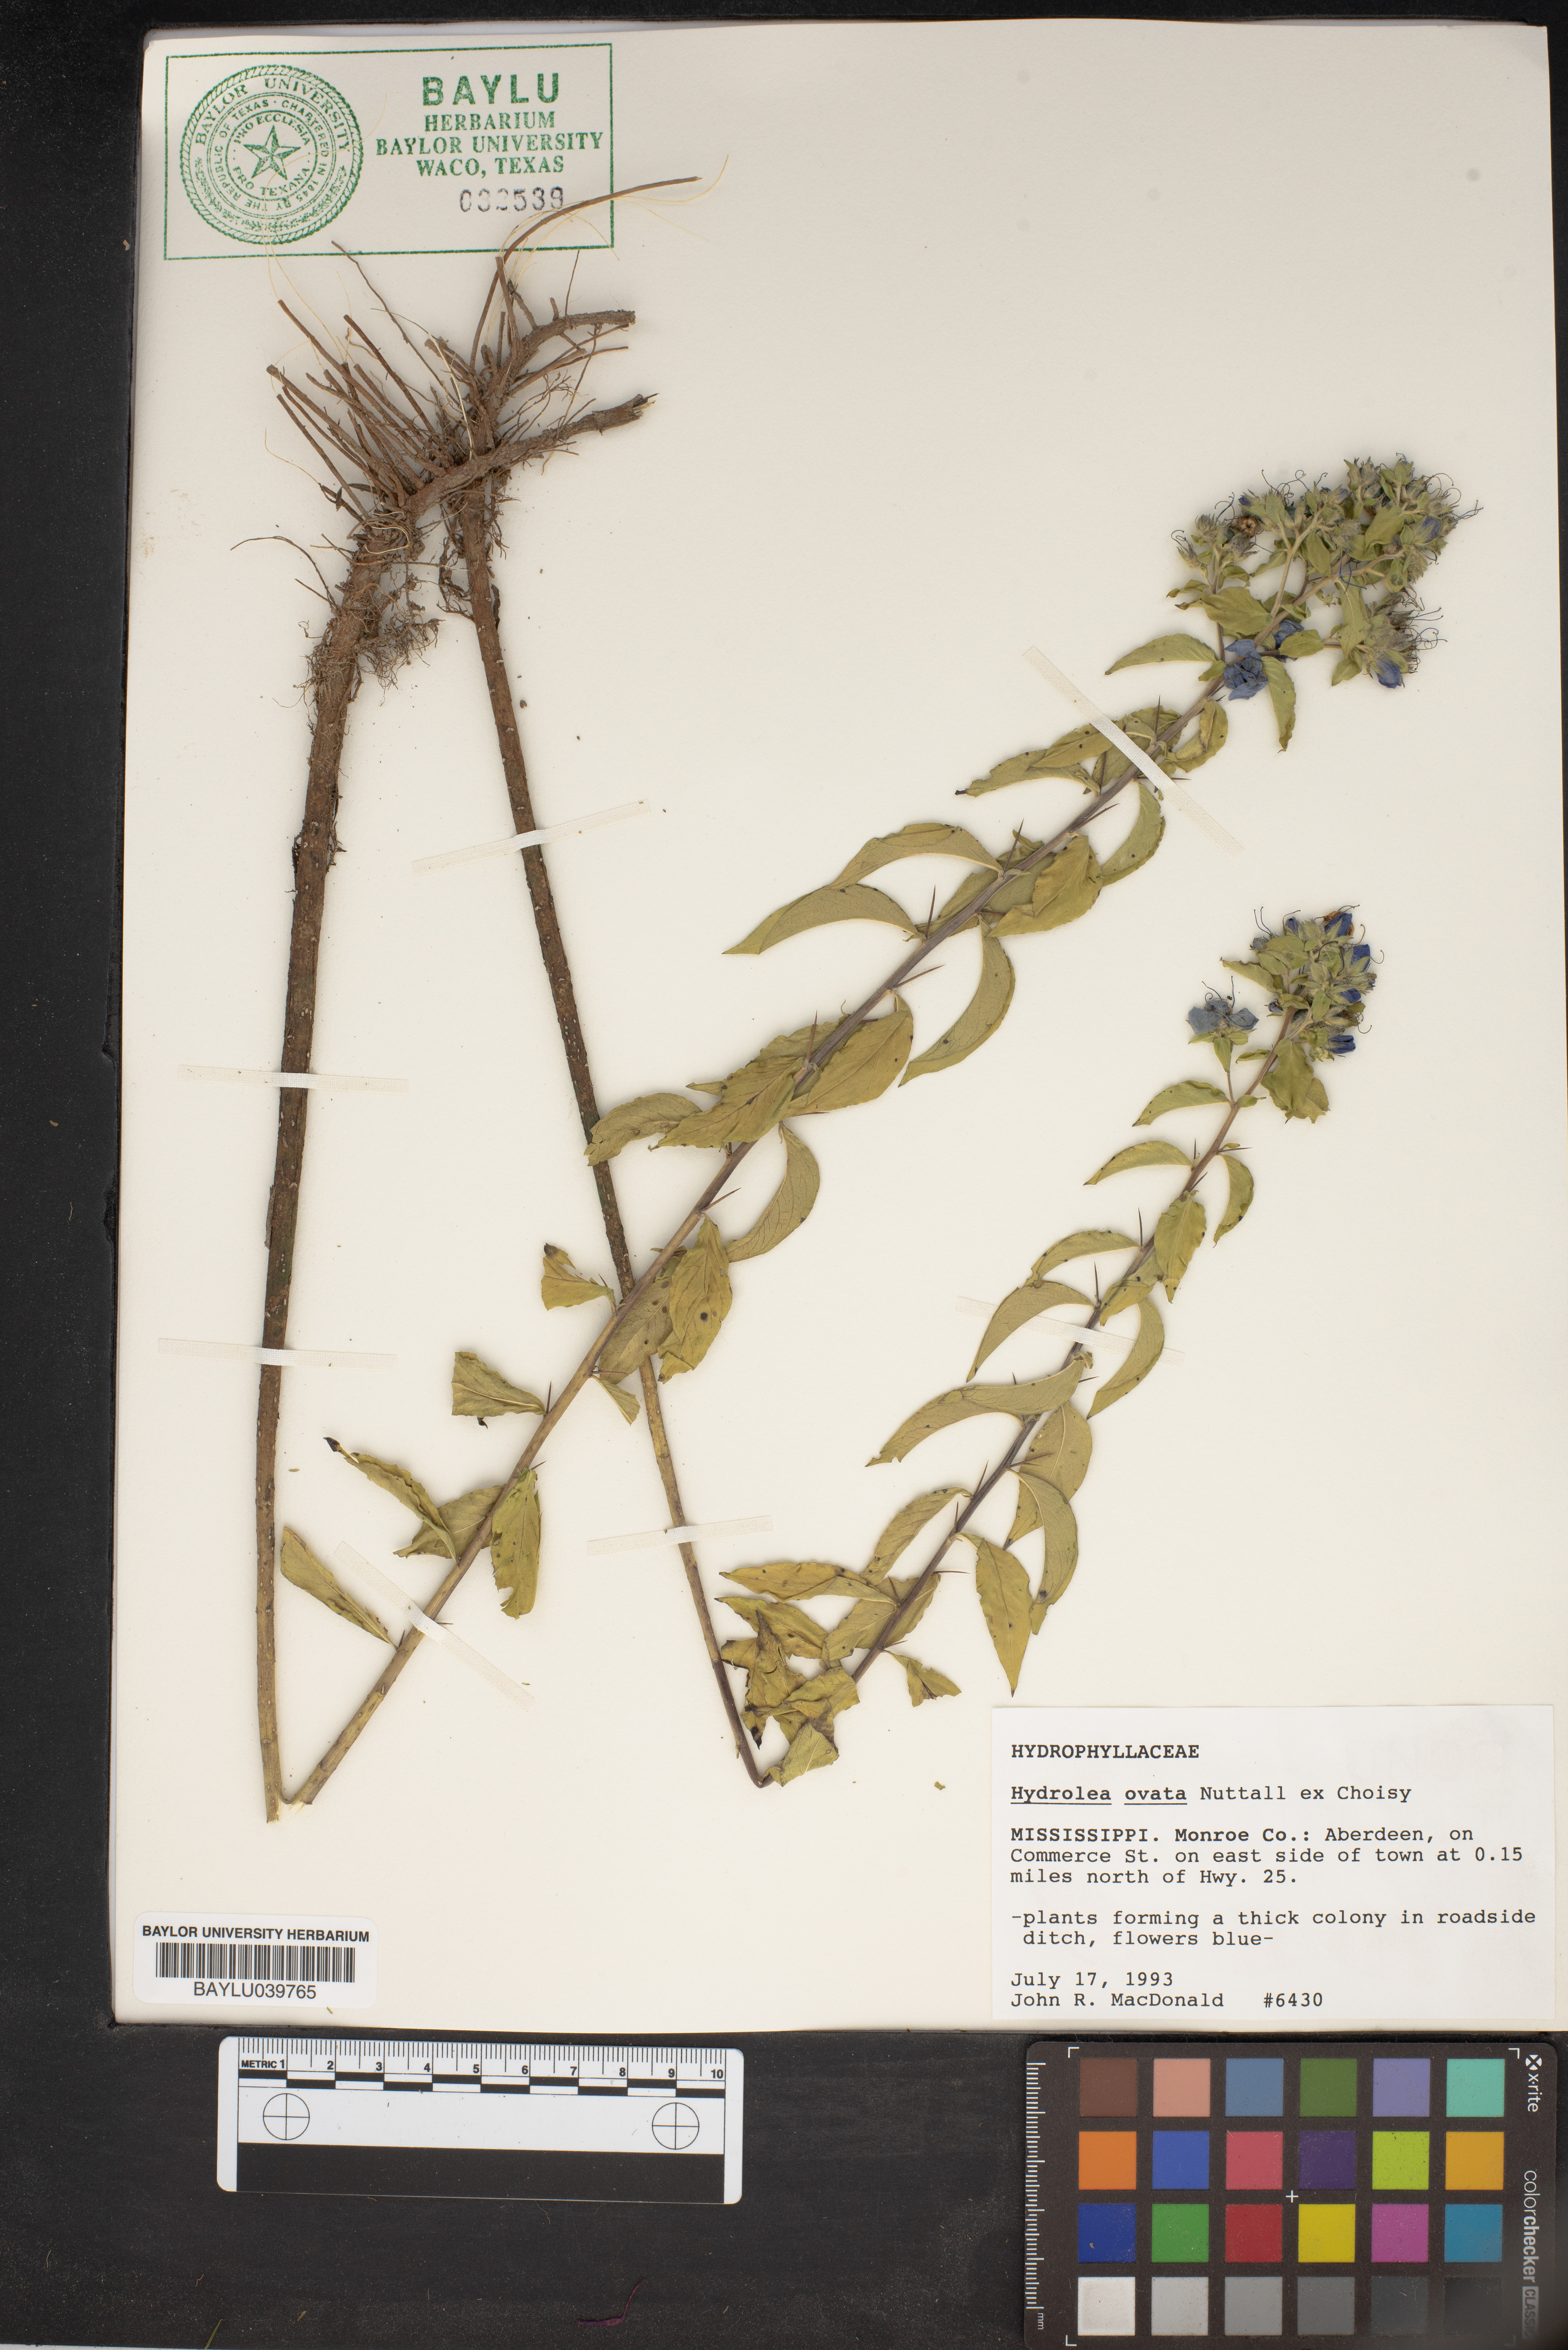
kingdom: Plantae
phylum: Tracheophyta
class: Magnoliopsida
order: Solanales
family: Hydroleaceae
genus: Hydrolea
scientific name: Hydrolea ovata
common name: Ovate false fiddleleaf
